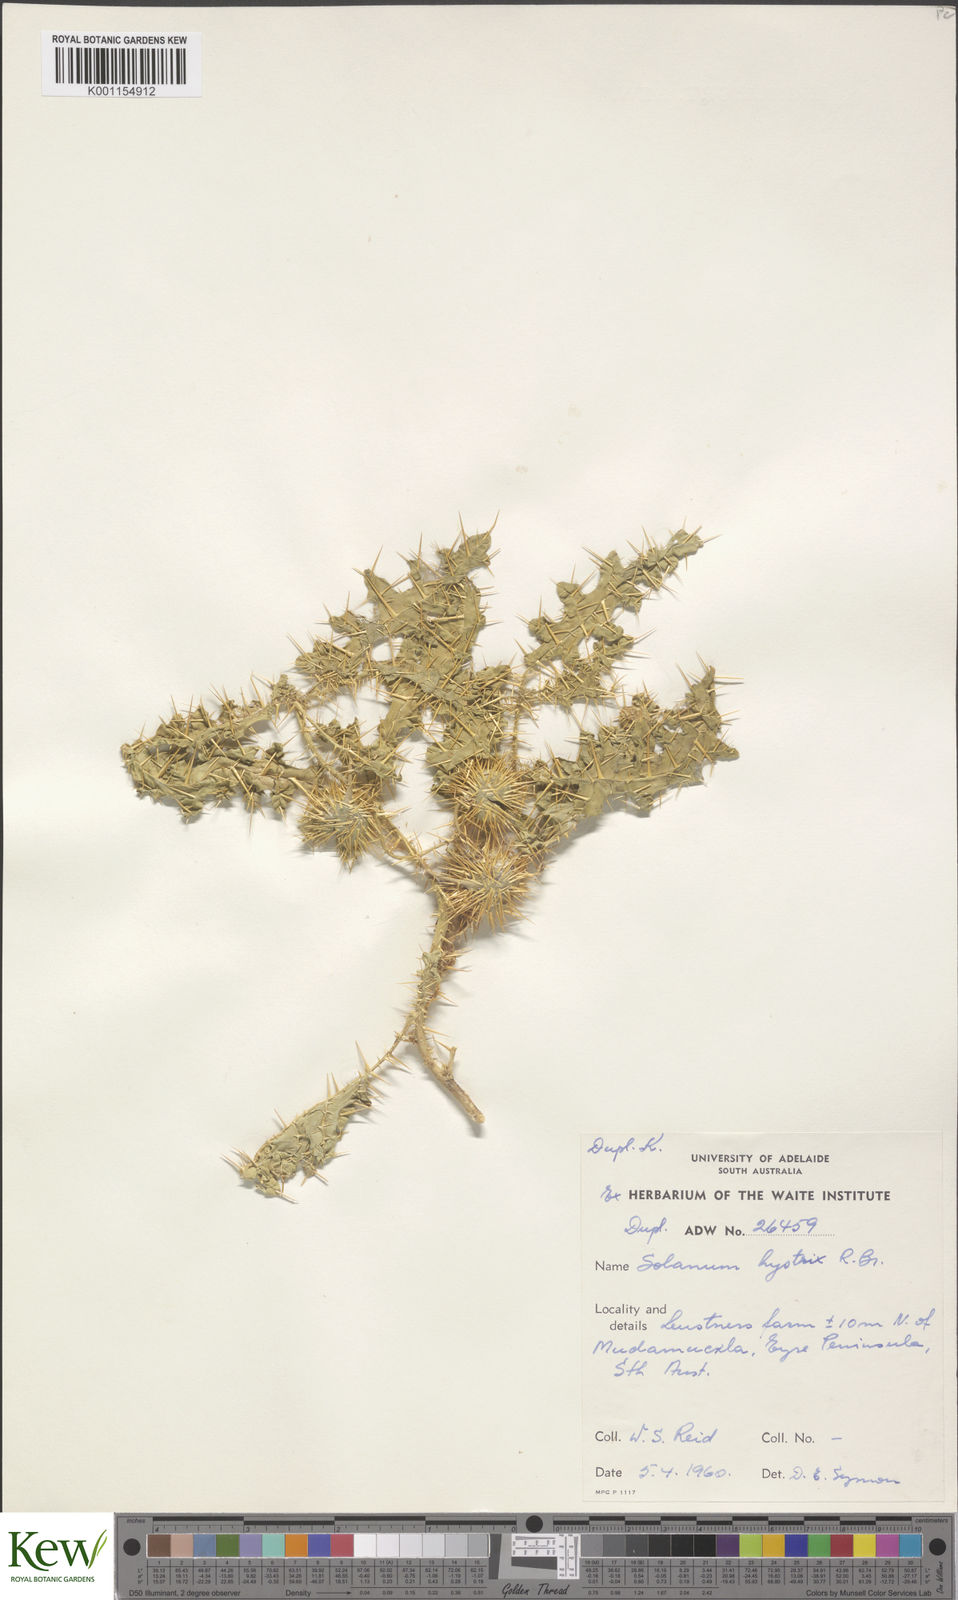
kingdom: Plantae
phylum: Tracheophyta
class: Magnoliopsida
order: Solanales
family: Solanaceae
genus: Solanum
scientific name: Solanum hystrix
